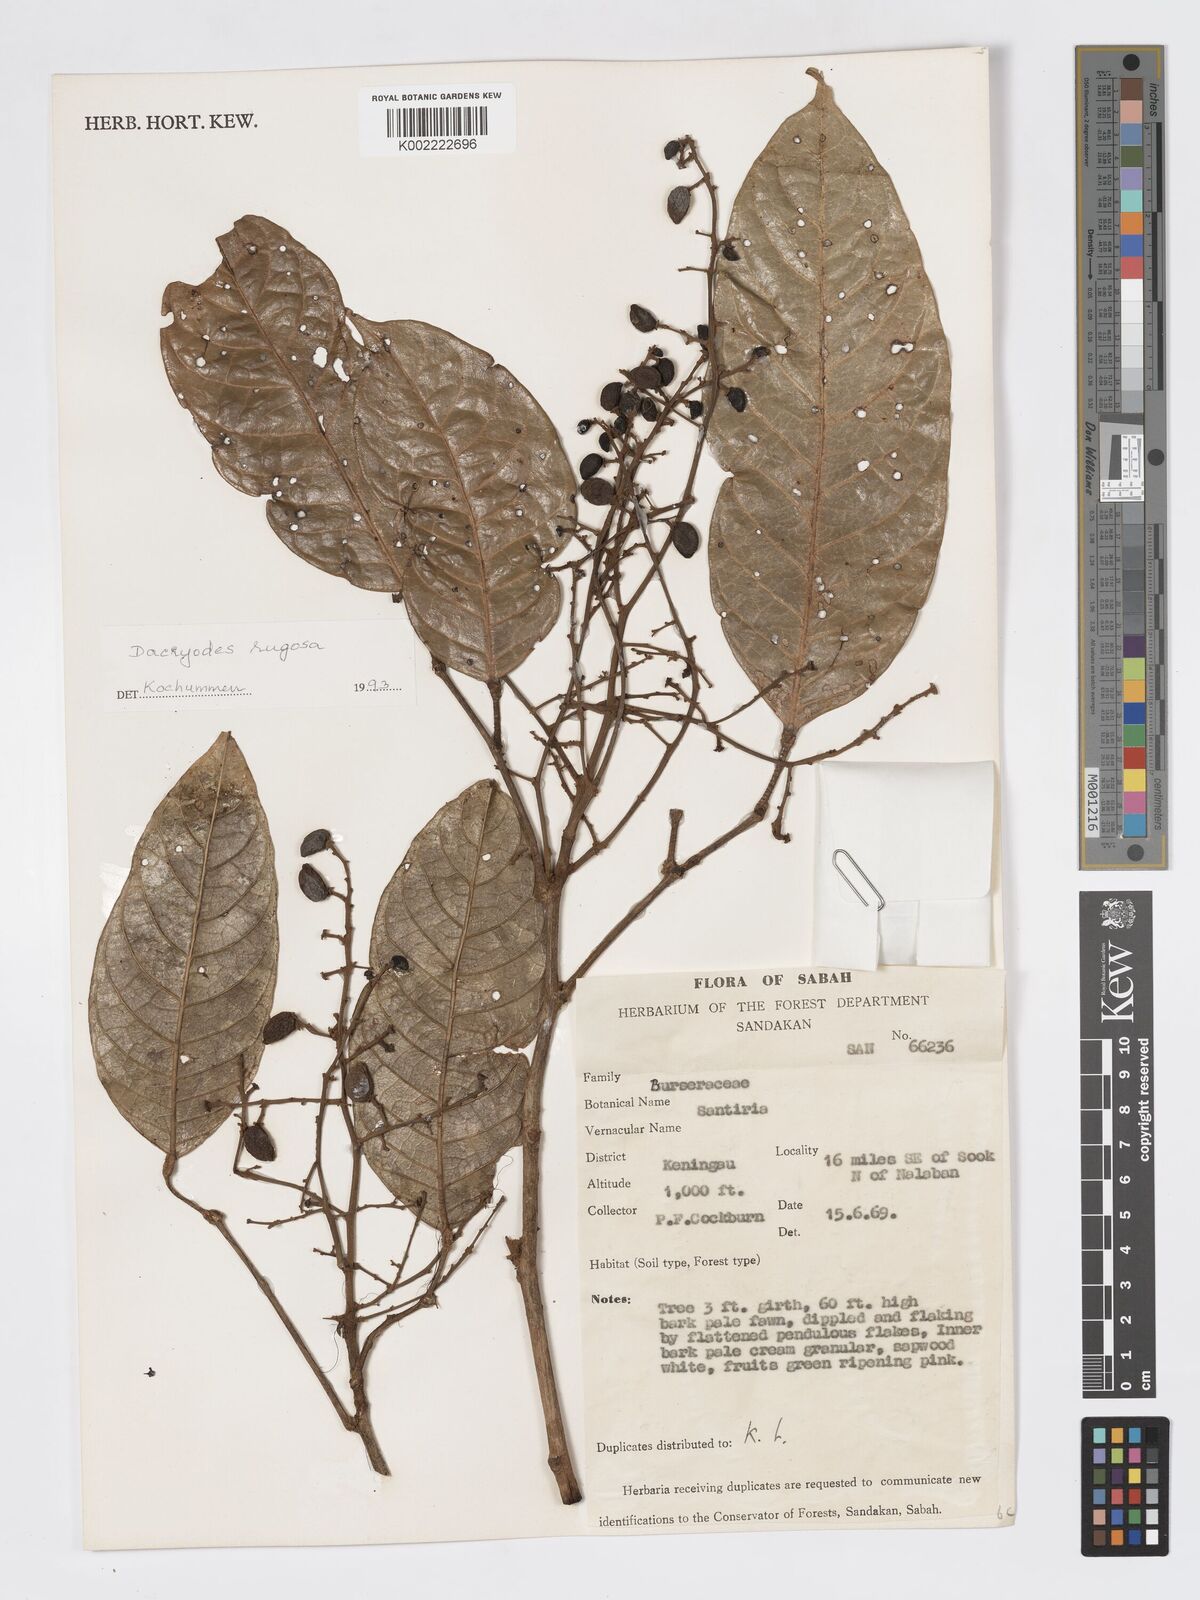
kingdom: Plantae
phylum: Tracheophyta
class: Magnoliopsida
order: Sapindales
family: Burseraceae
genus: Dacryodes
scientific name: Dacryodes rugosa
